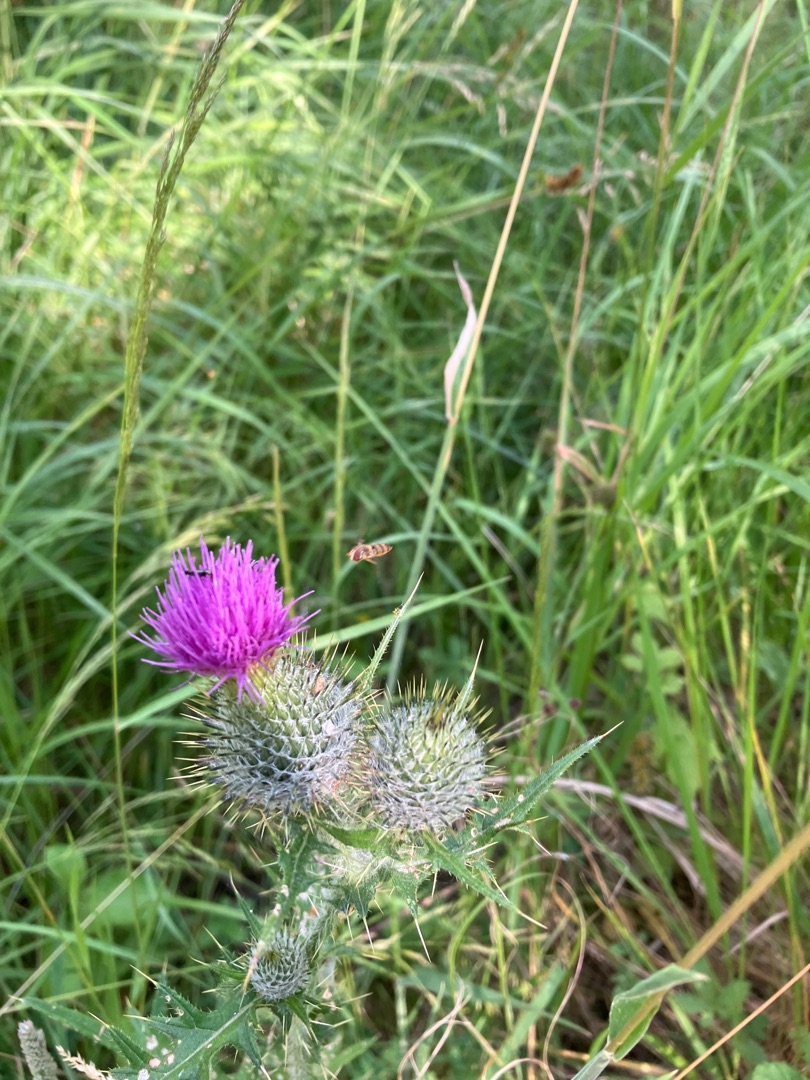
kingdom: Plantae
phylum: Tracheophyta
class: Magnoliopsida
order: Asterales
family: Asteraceae
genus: Cirsium
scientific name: Cirsium vulgare
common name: Horse-tidsel
